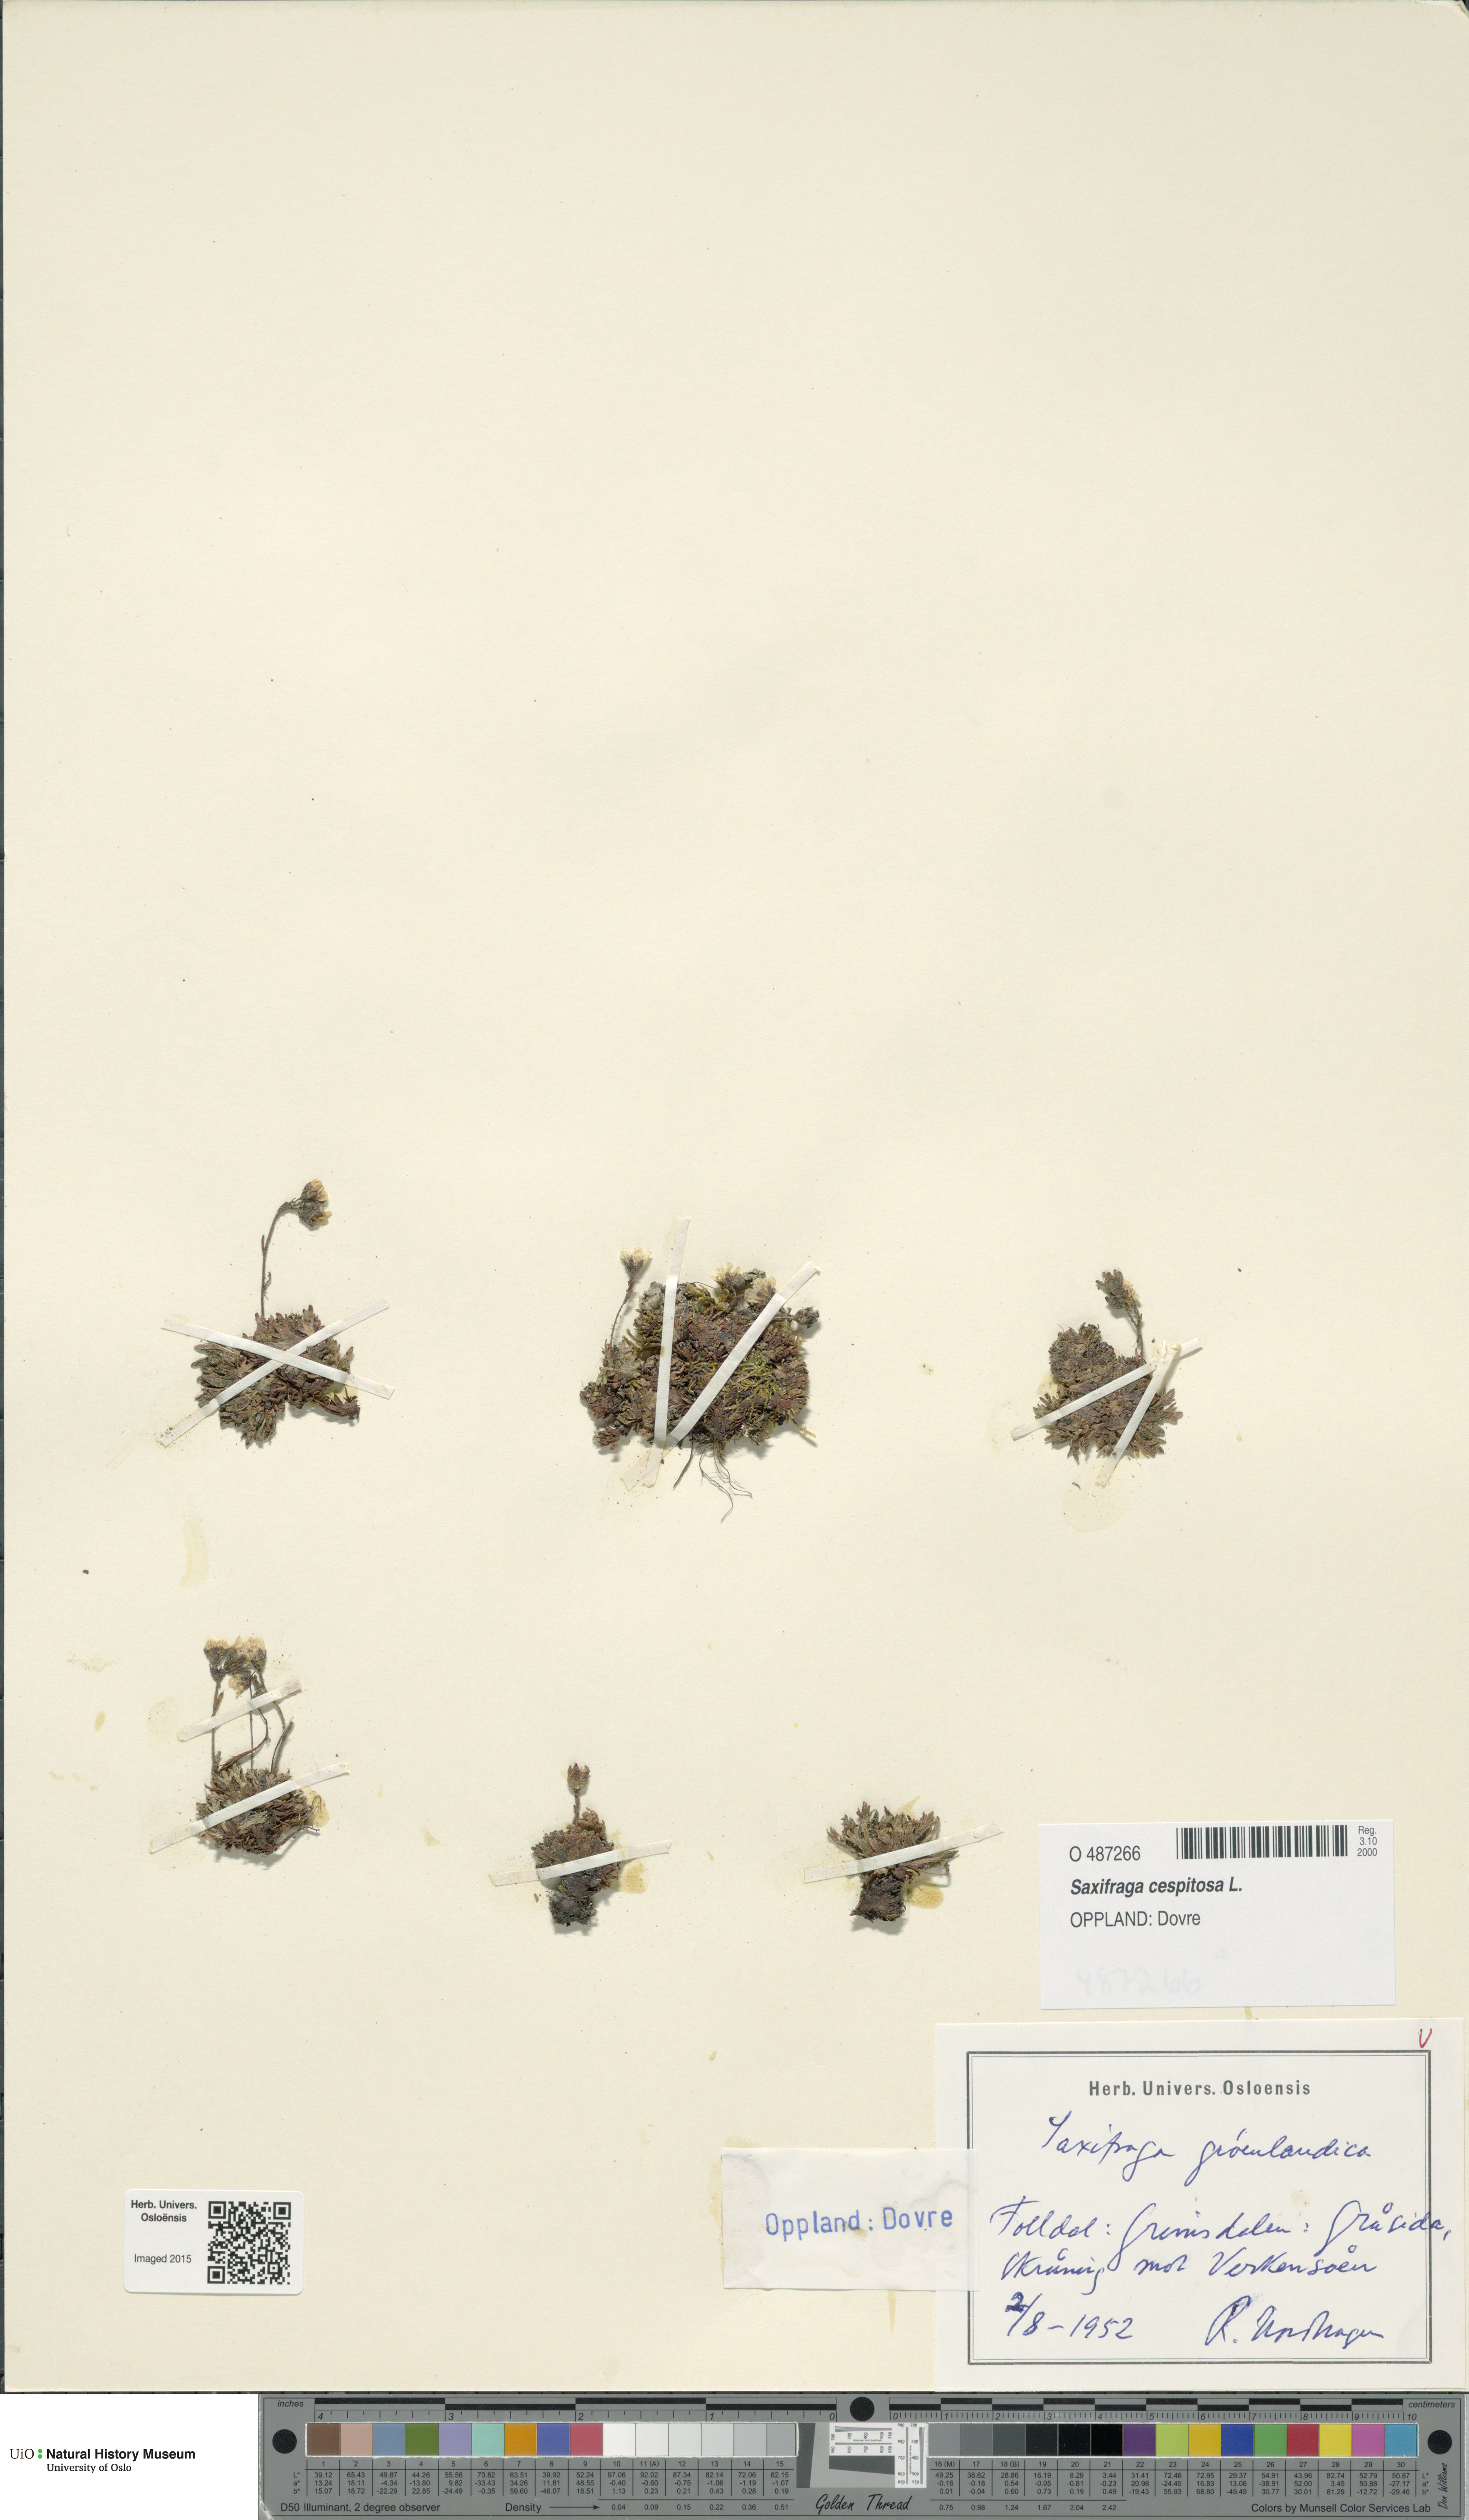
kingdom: Plantae
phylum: Tracheophyta
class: Magnoliopsida
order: Saxifragales
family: Saxifragaceae
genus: Saxifraga
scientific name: Saxifraga cespitosa
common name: Tufted saxifrage
